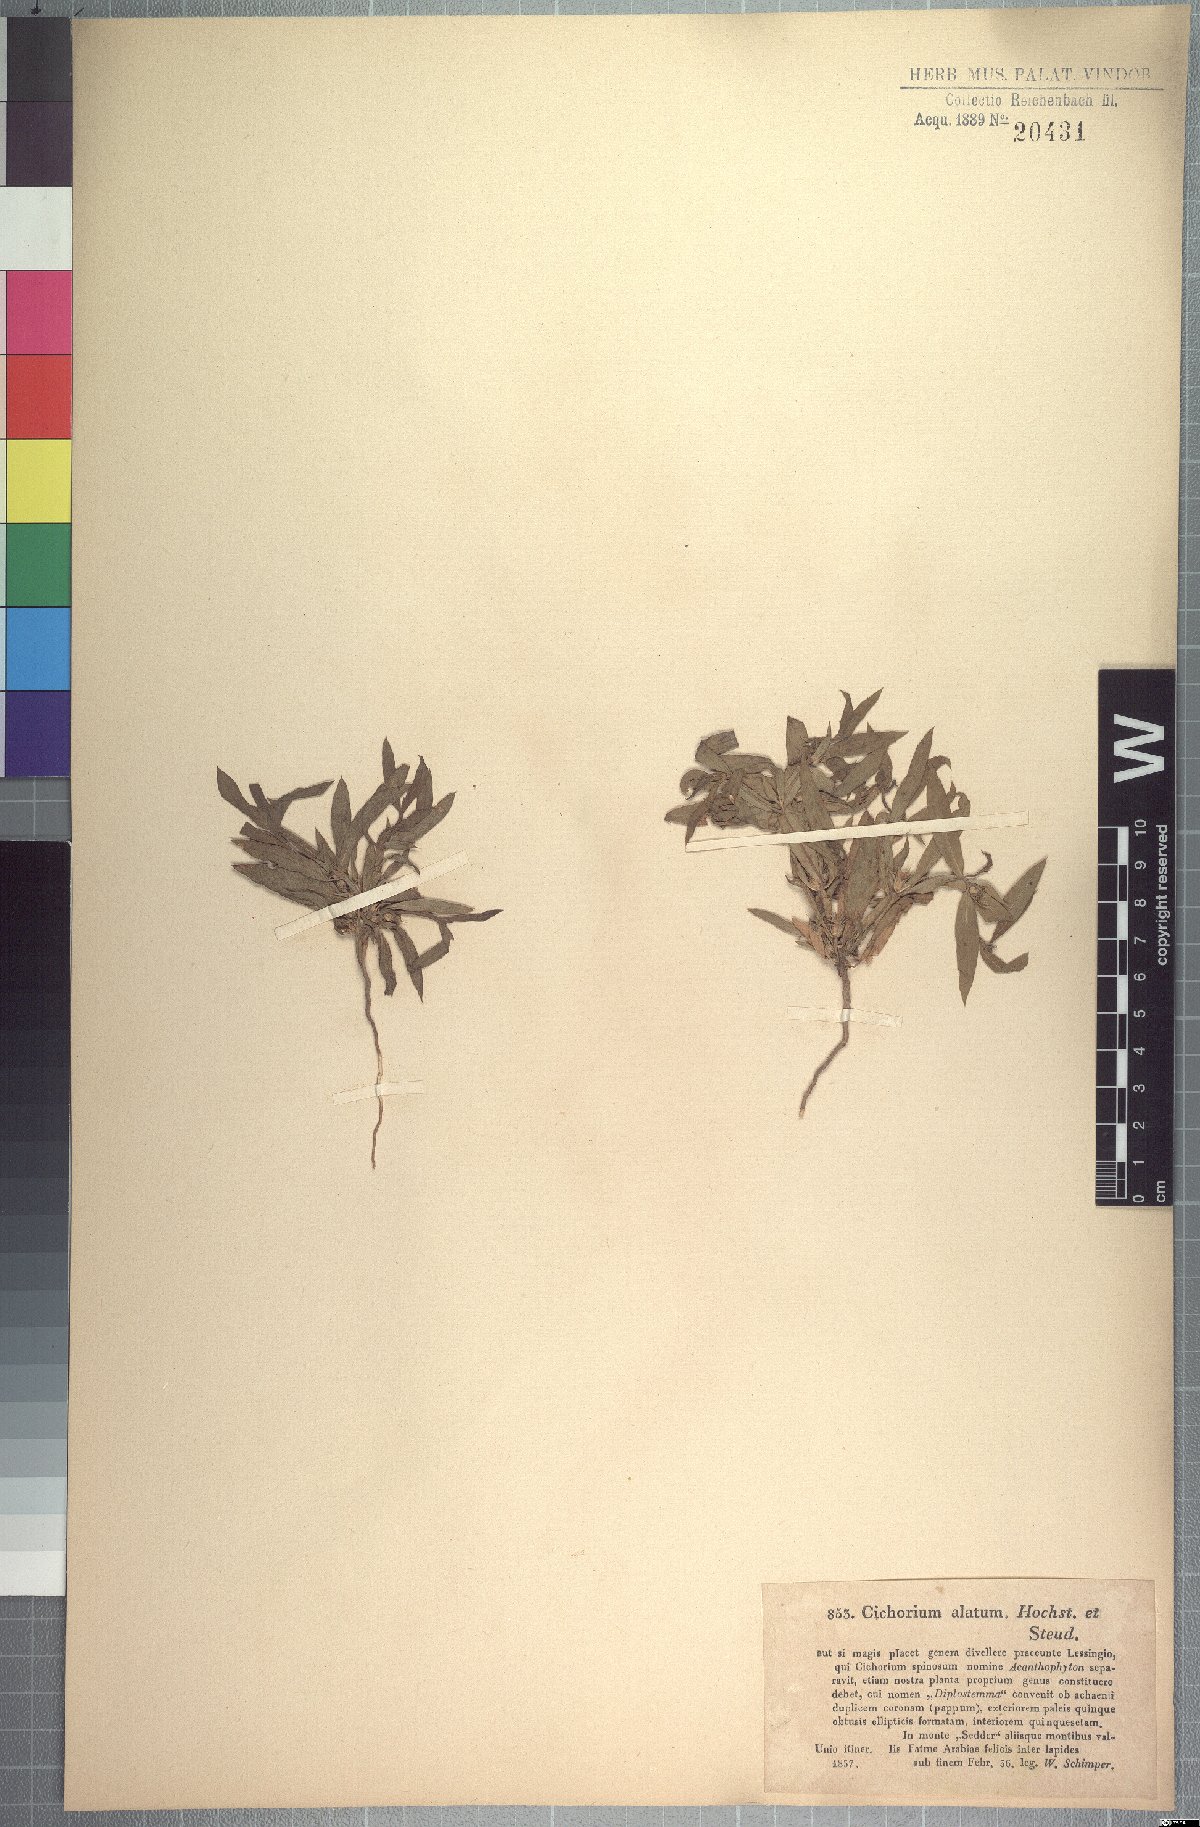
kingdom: Plantae
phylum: Tracheophyta
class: Magnoliopsida
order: Asterales
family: Asteraceae
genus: Geigeria
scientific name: Geigeria alata
